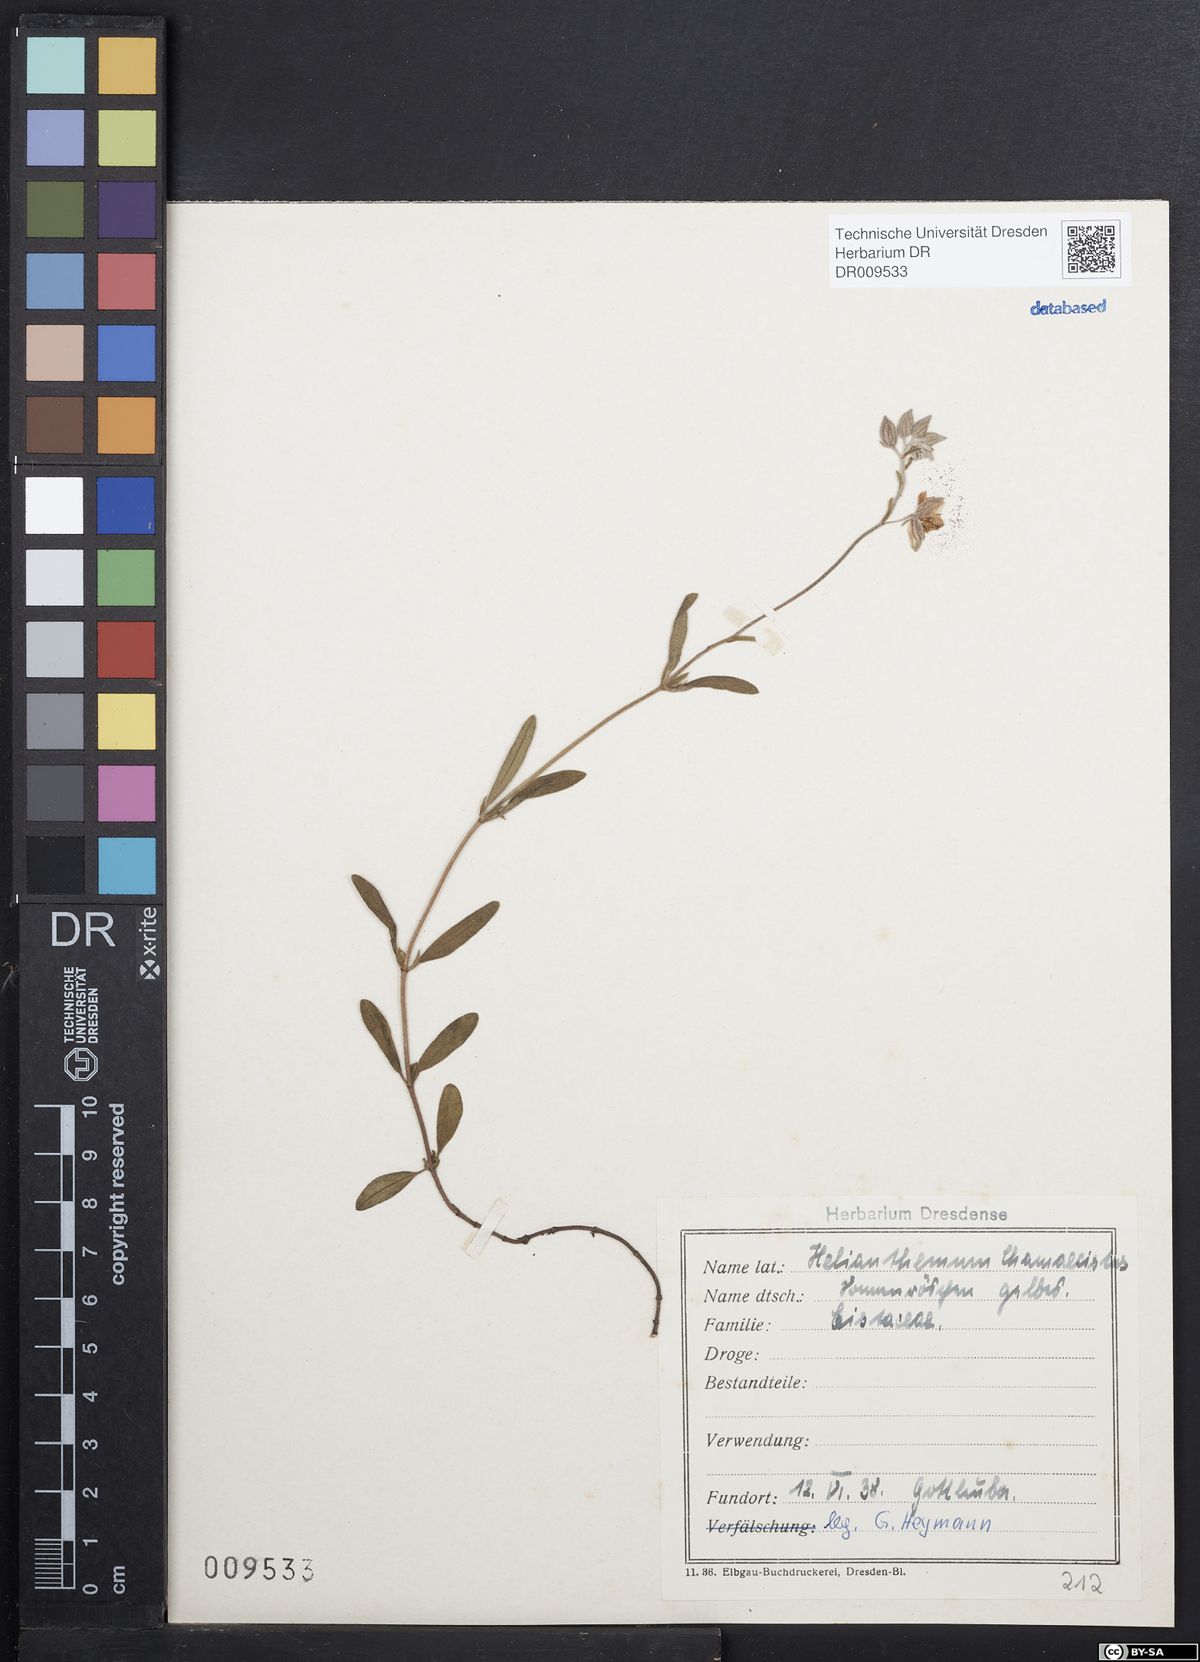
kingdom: Plantae
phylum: Tracheophyta
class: Magnoliopsida
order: Malvales
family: Cistaceae
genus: Helianthemum
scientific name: Helianthemum nummularium
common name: Common rock-rose
